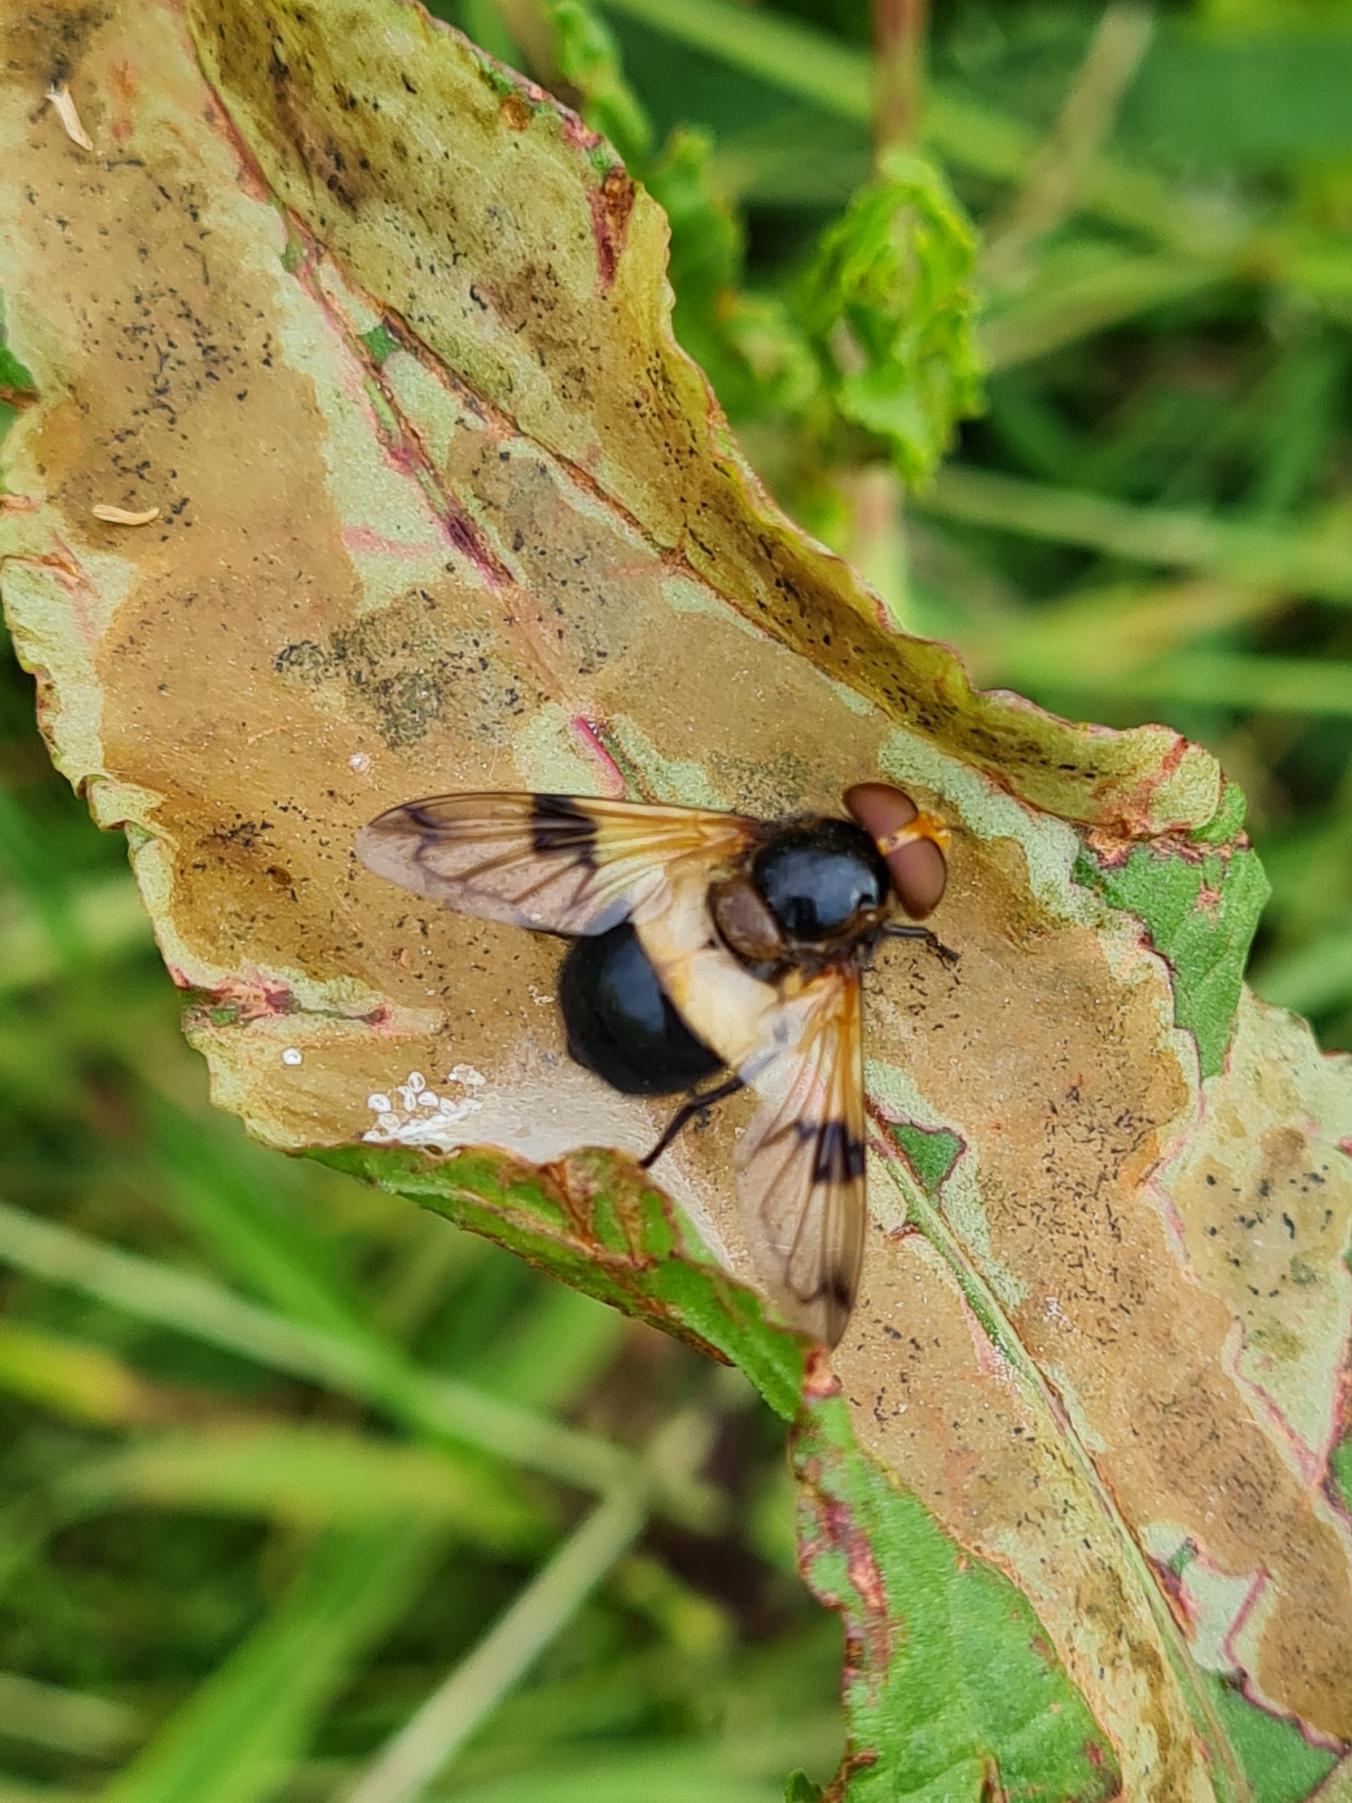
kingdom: Animalia
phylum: Arthropoda
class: Insecta
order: Diptera
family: Syrphidae
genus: Volucella
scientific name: Volucella pellucens
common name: Hvidbåndet humlesvirreflue
